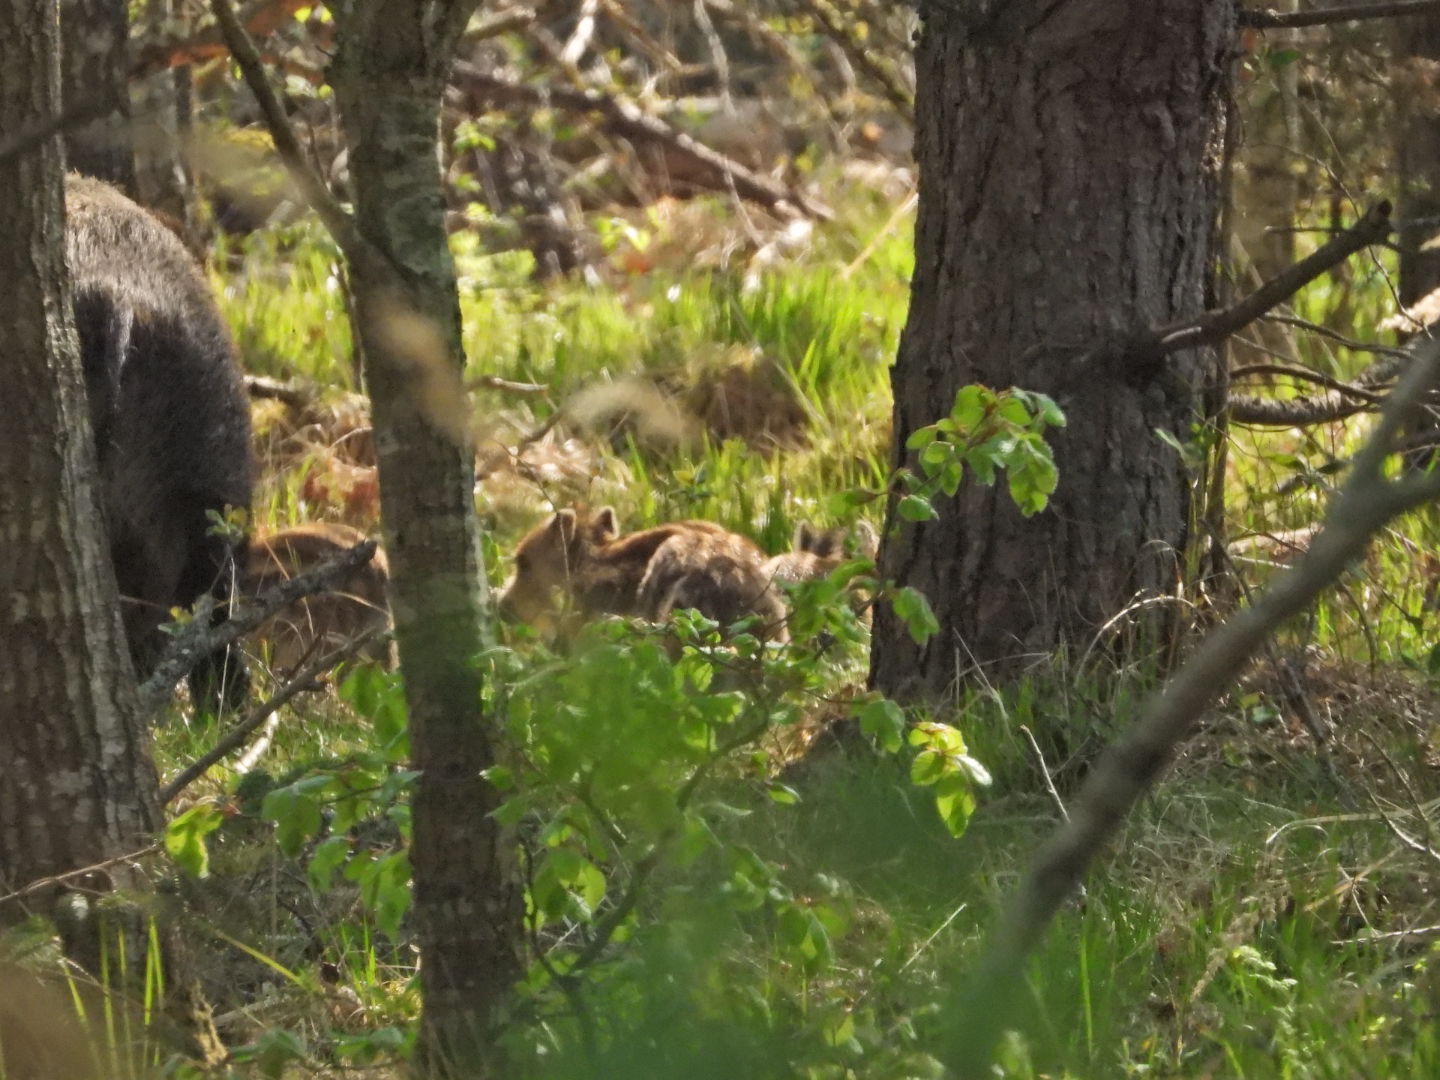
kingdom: Animalia
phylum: Chordata
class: Mammalia
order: Artiodactyla
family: Suidae
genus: Sus
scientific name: Sus scrofa
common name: Vildsvin
